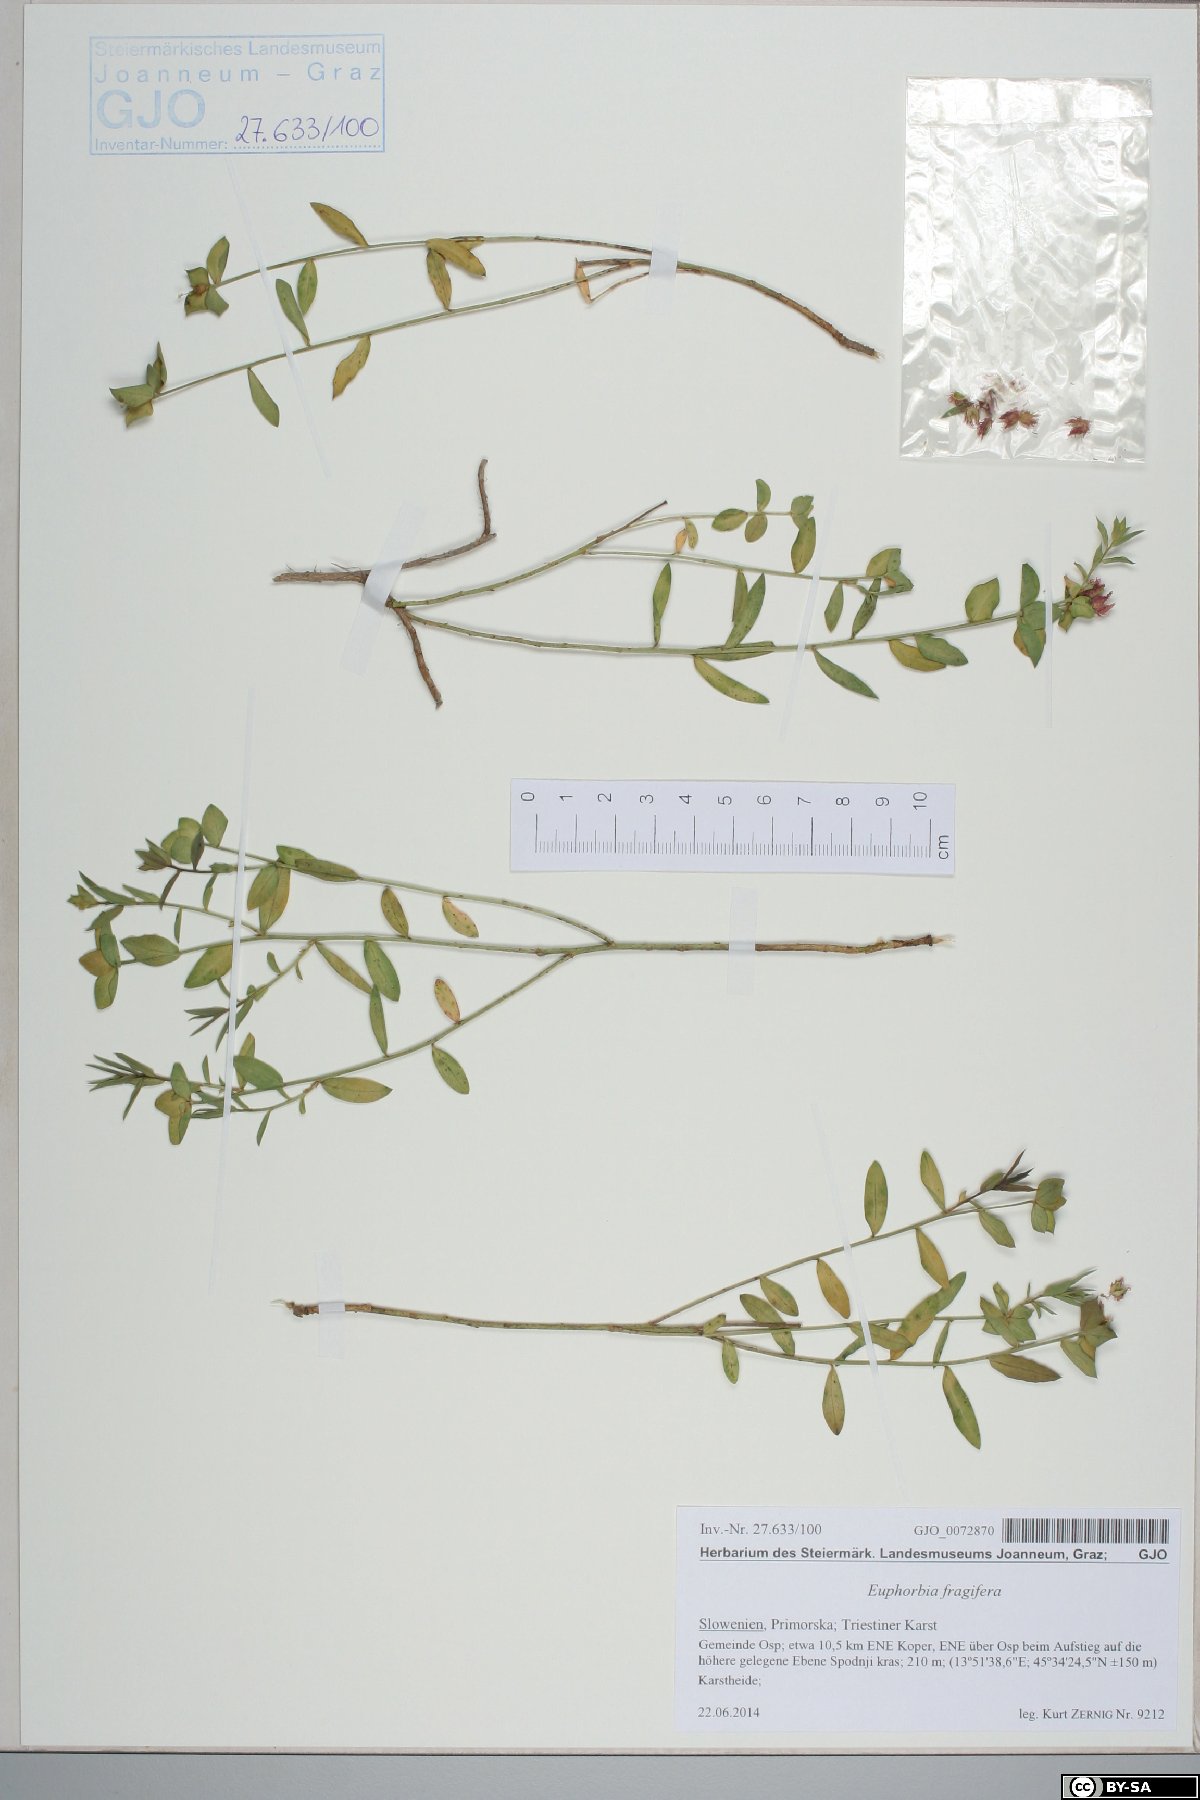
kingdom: Plantae
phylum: Tracheophyta
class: Magnoliopsida
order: Malpighiales
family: Euphorbiaceae
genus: Euphorbia
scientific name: Euphorbia fragifera
